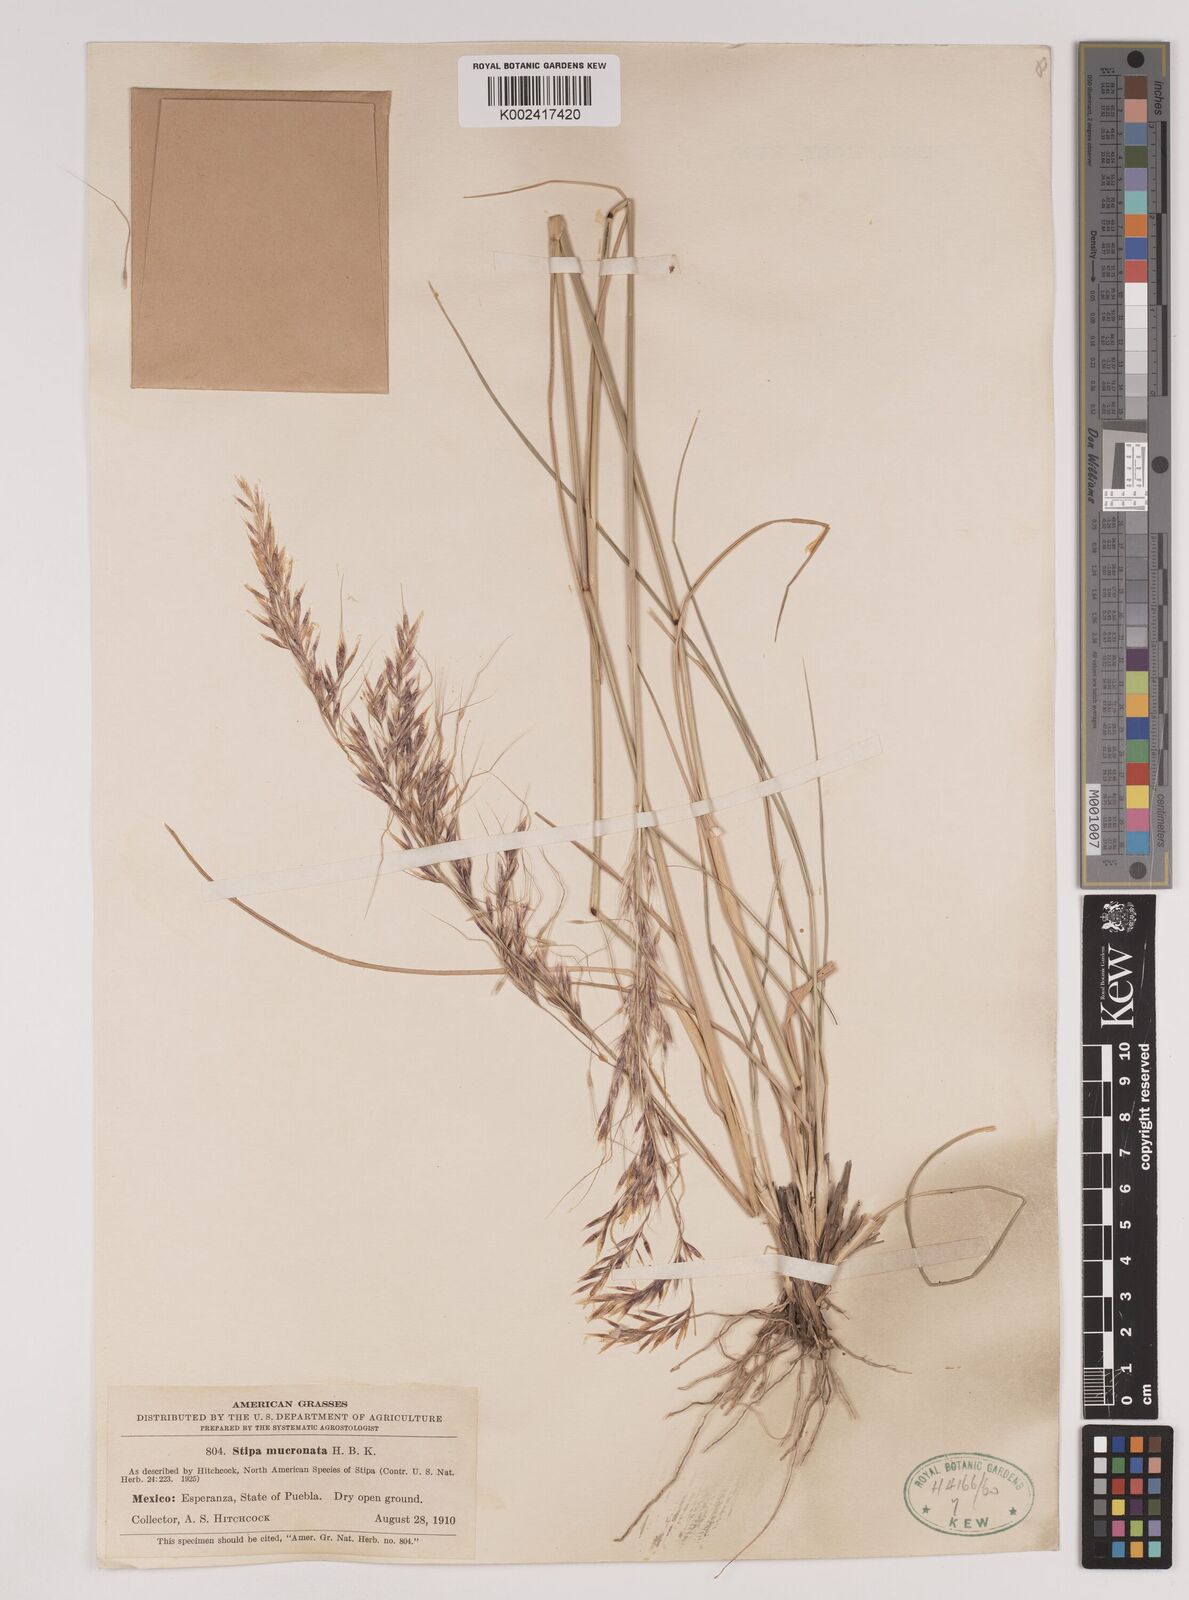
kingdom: Plantae
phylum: Tracheophyta
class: Liliopsida
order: Poales
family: Poaceae
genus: Nassella
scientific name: Nassella mucronata
